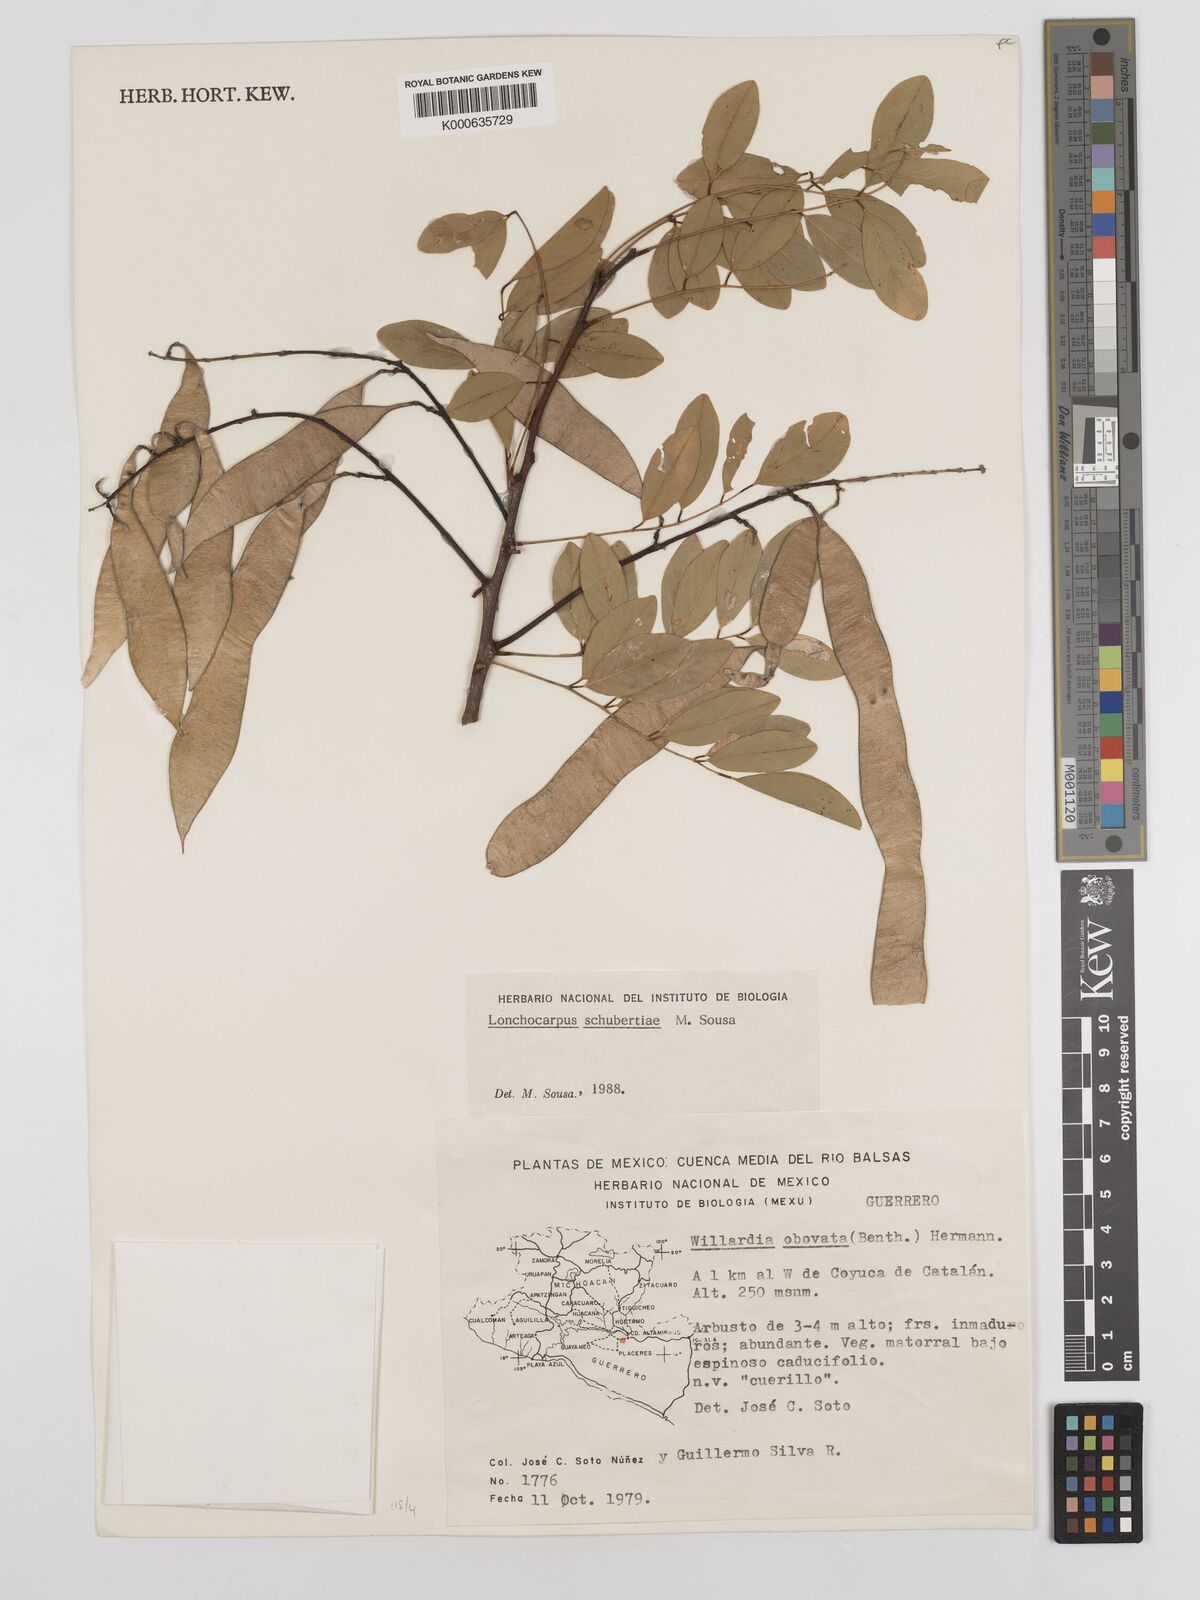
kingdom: Plantae
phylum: Tracheophyta
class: Magnoliopsida
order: Fabales
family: Fabaceae
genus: Lonchocarpus
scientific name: Lonchocarpus schubertiae
